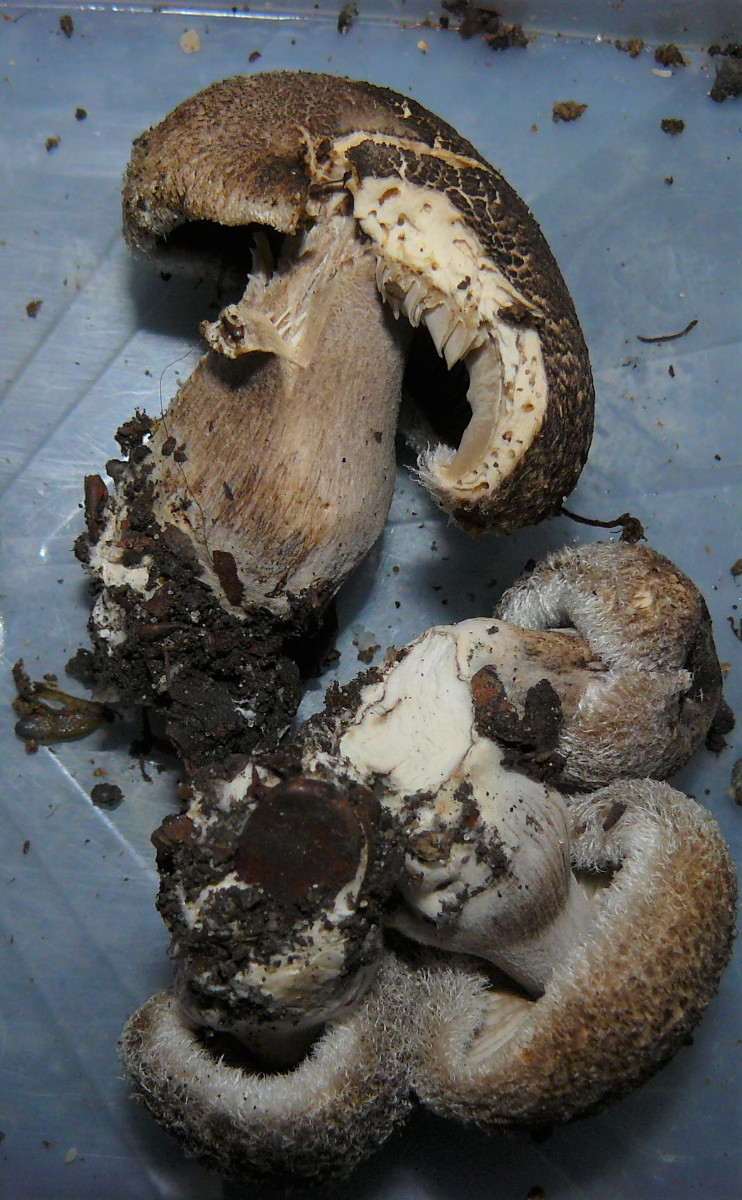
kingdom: Fungi
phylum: Basidiomycota
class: Agaricomycetes
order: Agaricales
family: Tricholomataceae
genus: Tricholoma
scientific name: Tricholoma atrosquamosum
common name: sortskællet ridderhat
